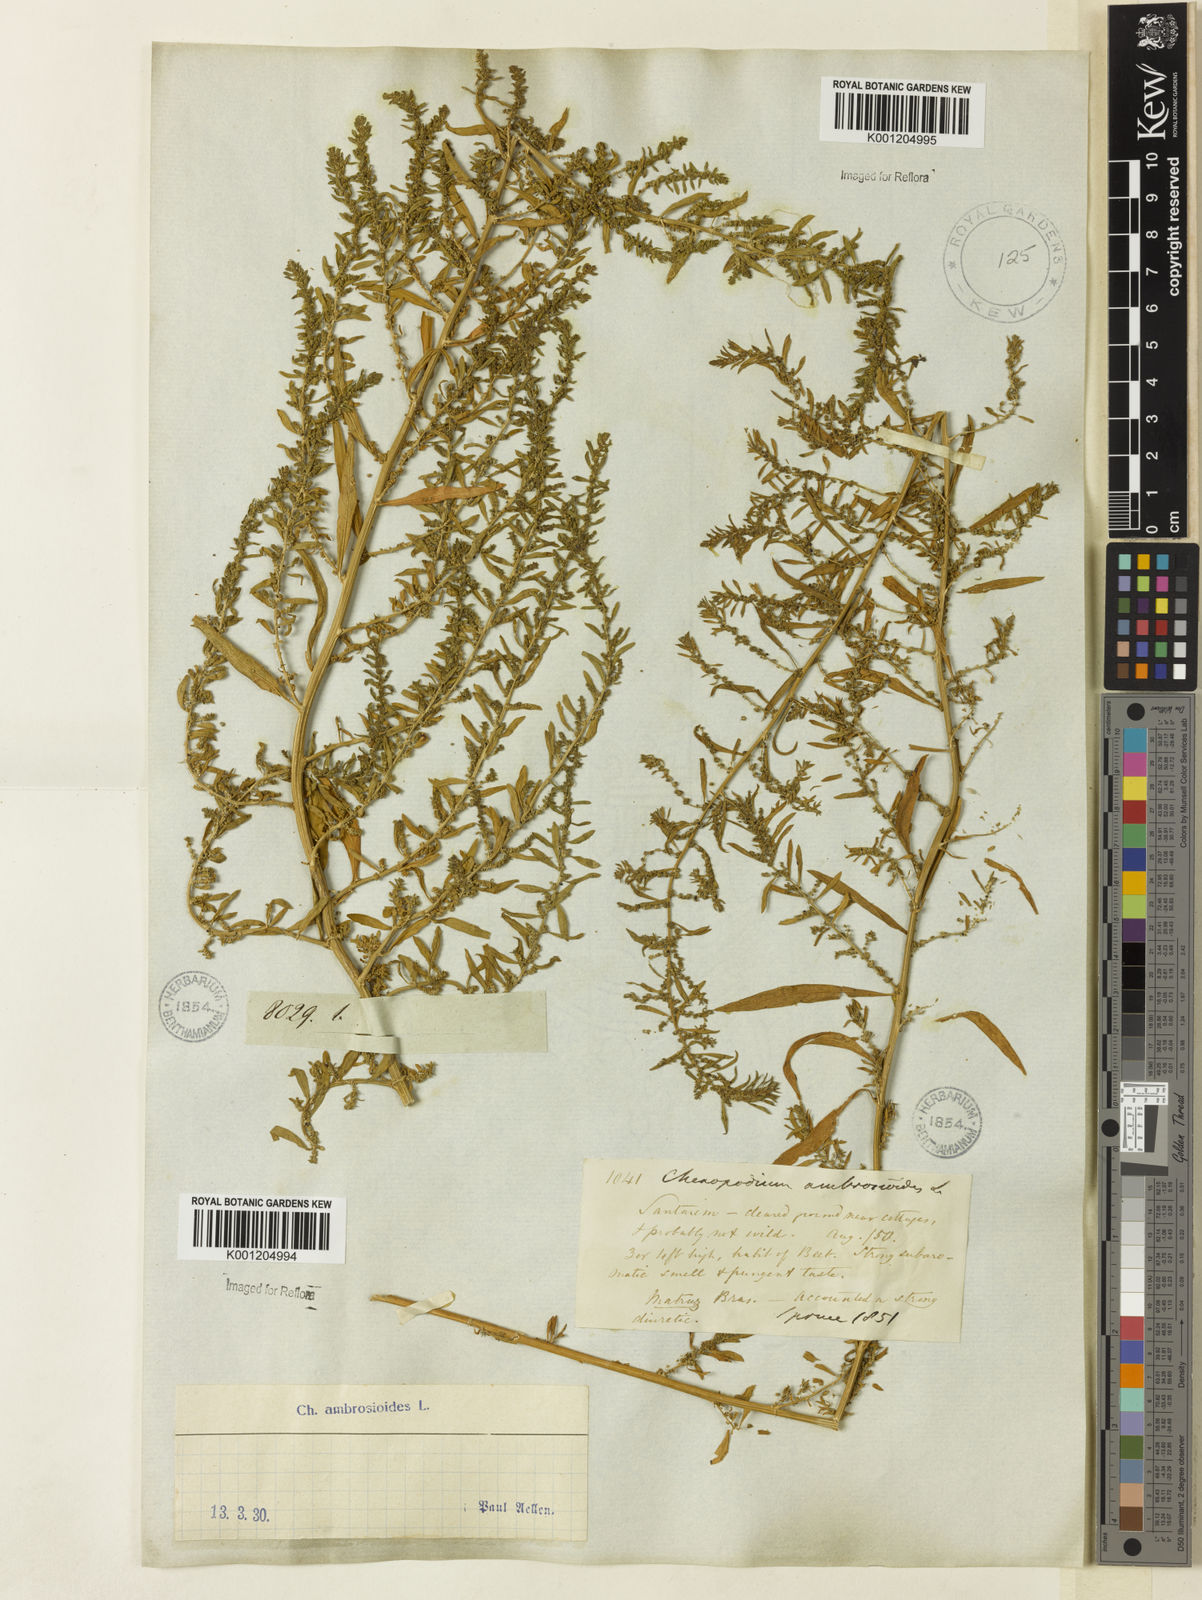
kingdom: Plantae
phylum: Tracheophyta
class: Magnoliopsida
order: Caryophyllales
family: Amaranthaceae
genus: Dysphania
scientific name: Dysphania ambrosioides
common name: Wormseed
